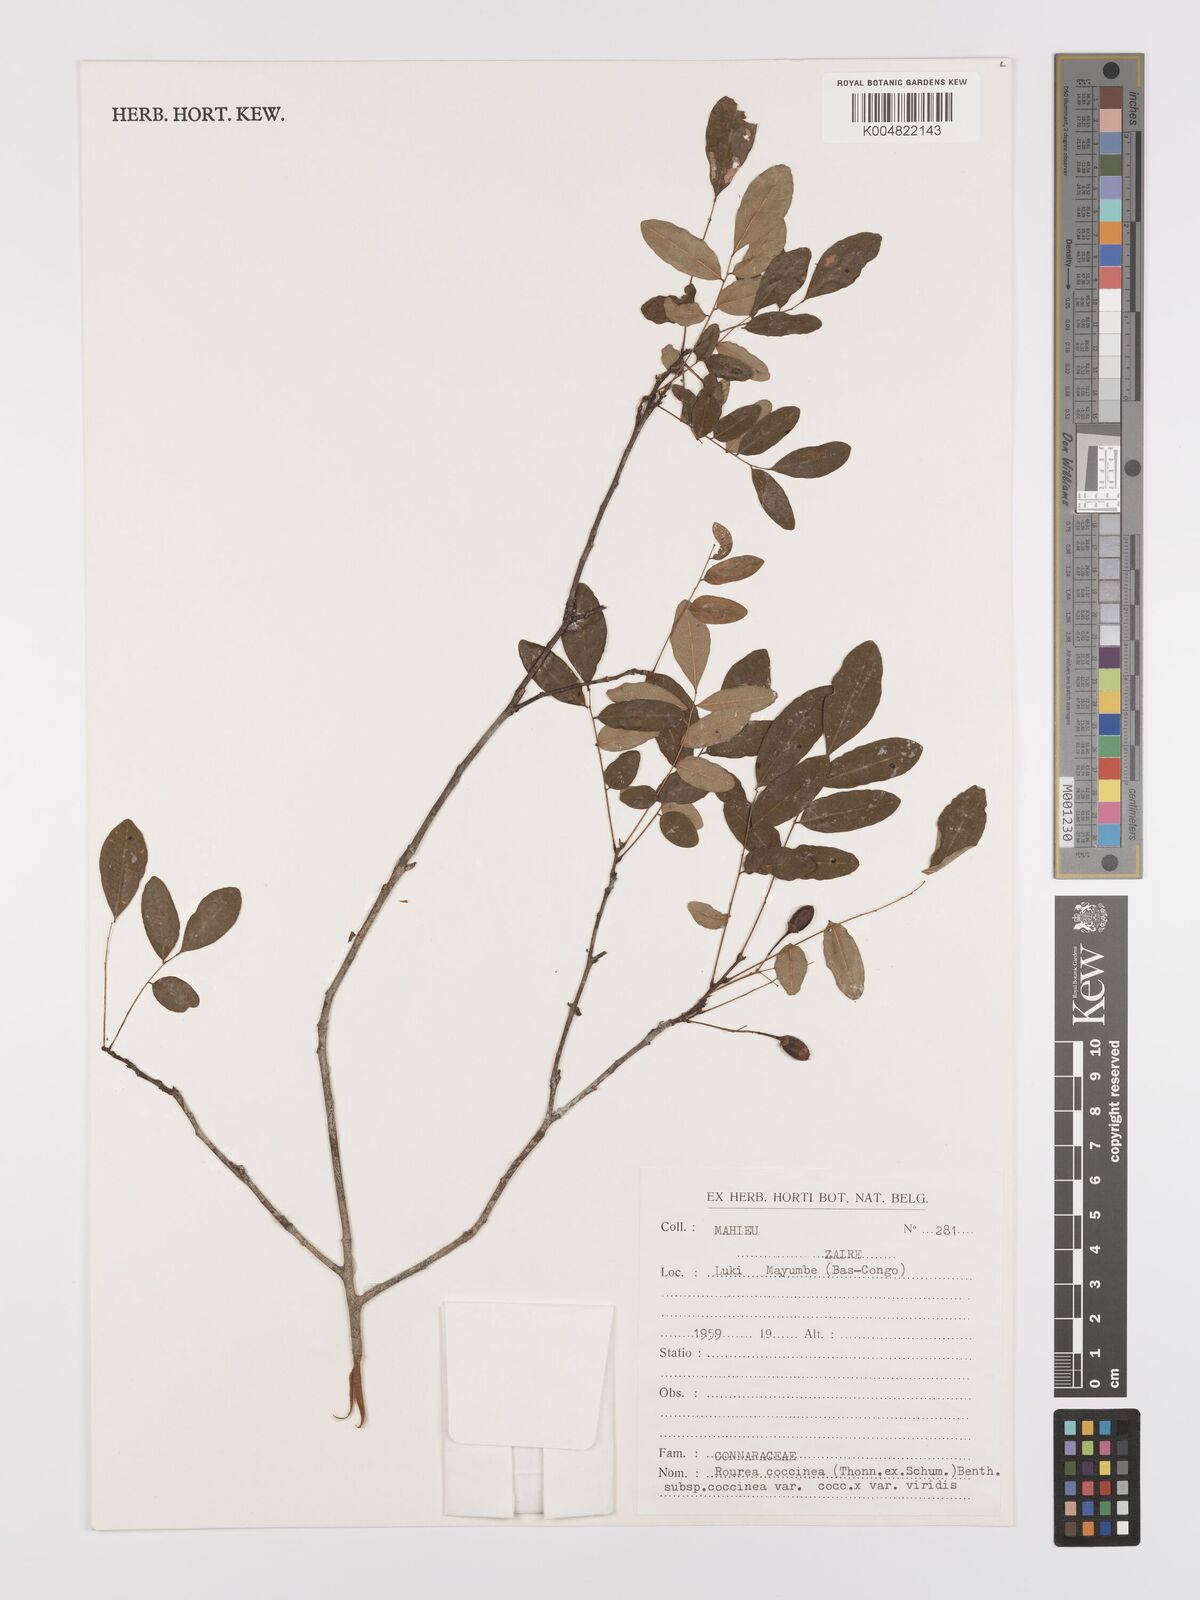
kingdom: Plantae
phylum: Tracheophyta
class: Magnoliopsida
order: Oxalidales
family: Connaraceae
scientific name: Connaraceae
